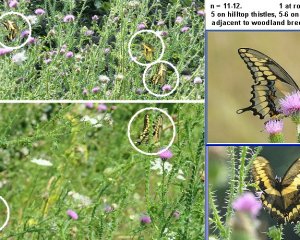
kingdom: Animalia
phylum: Arthropoda
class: Insecta
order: Lepidoptera
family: Papilionidae
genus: Papilio
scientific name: Papilio cresphontes
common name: Eastern Giant Swallowtail
